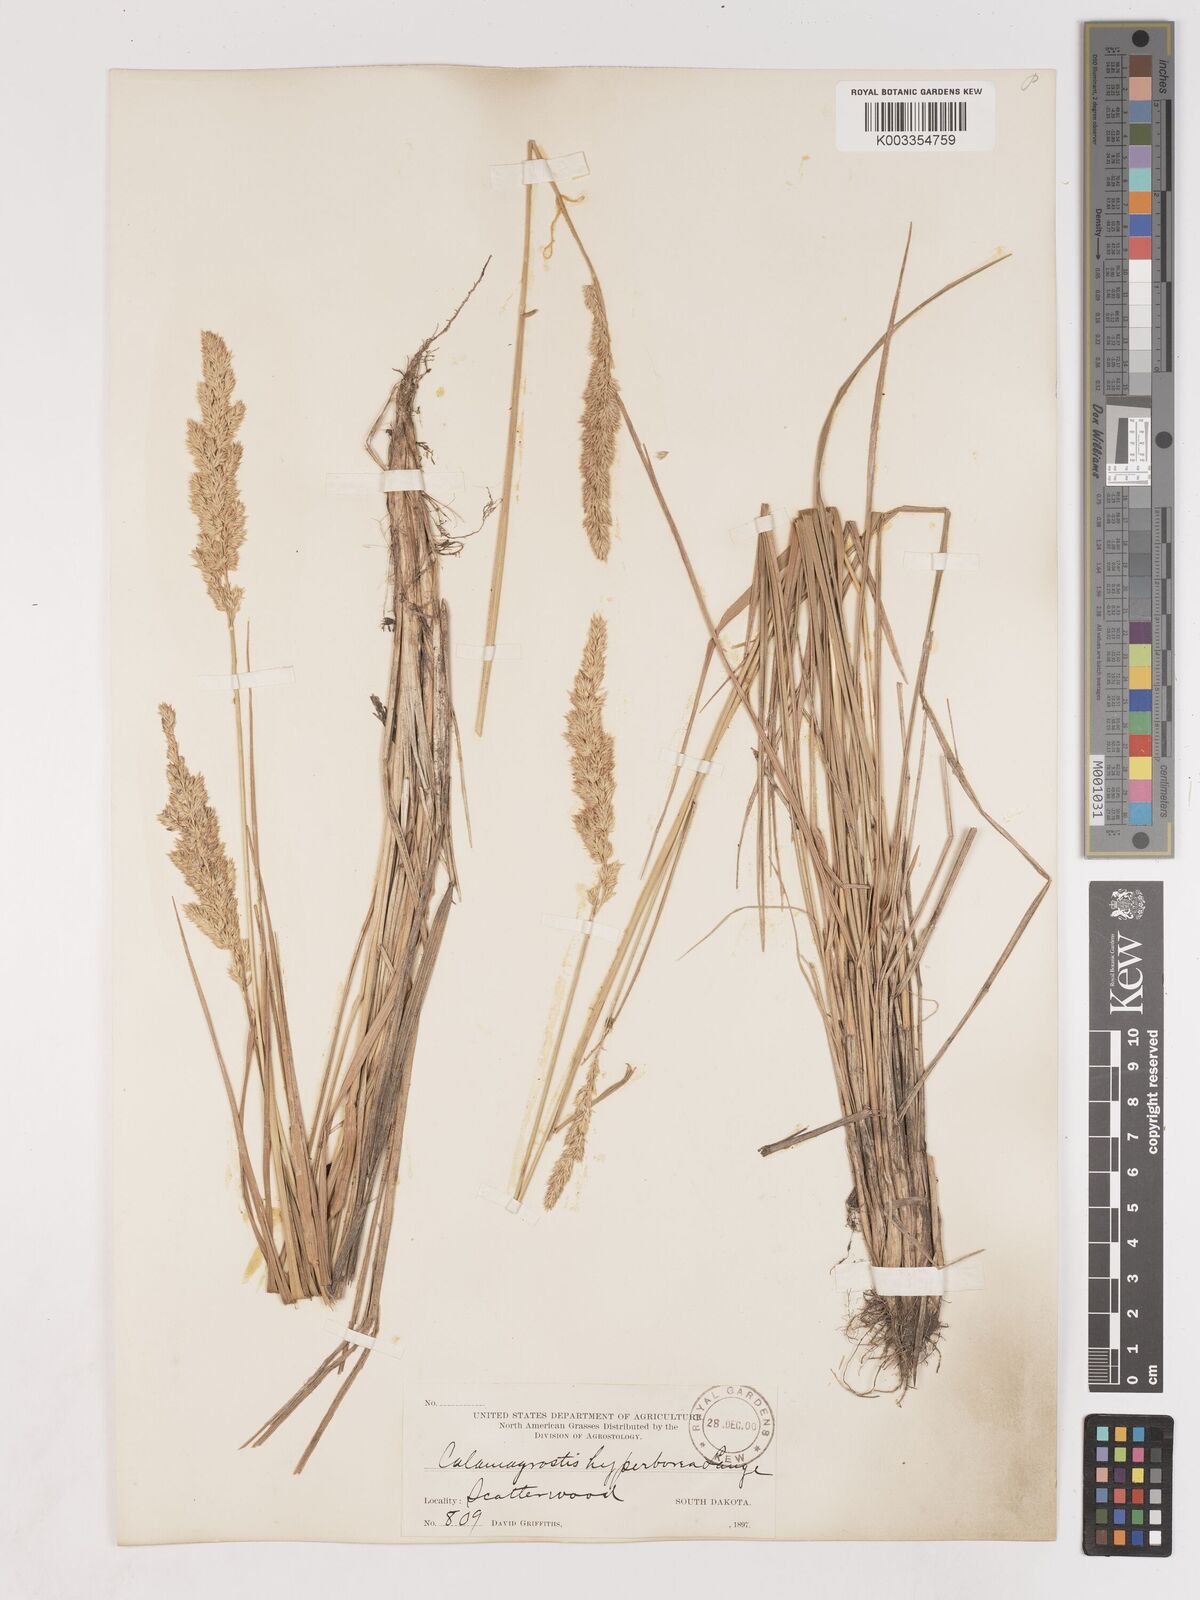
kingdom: Plantae
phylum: Tracheophyta
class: Liliopsida
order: Poales
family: Poaceae
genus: Cinnagrostis
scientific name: Cinnagrostis recta
